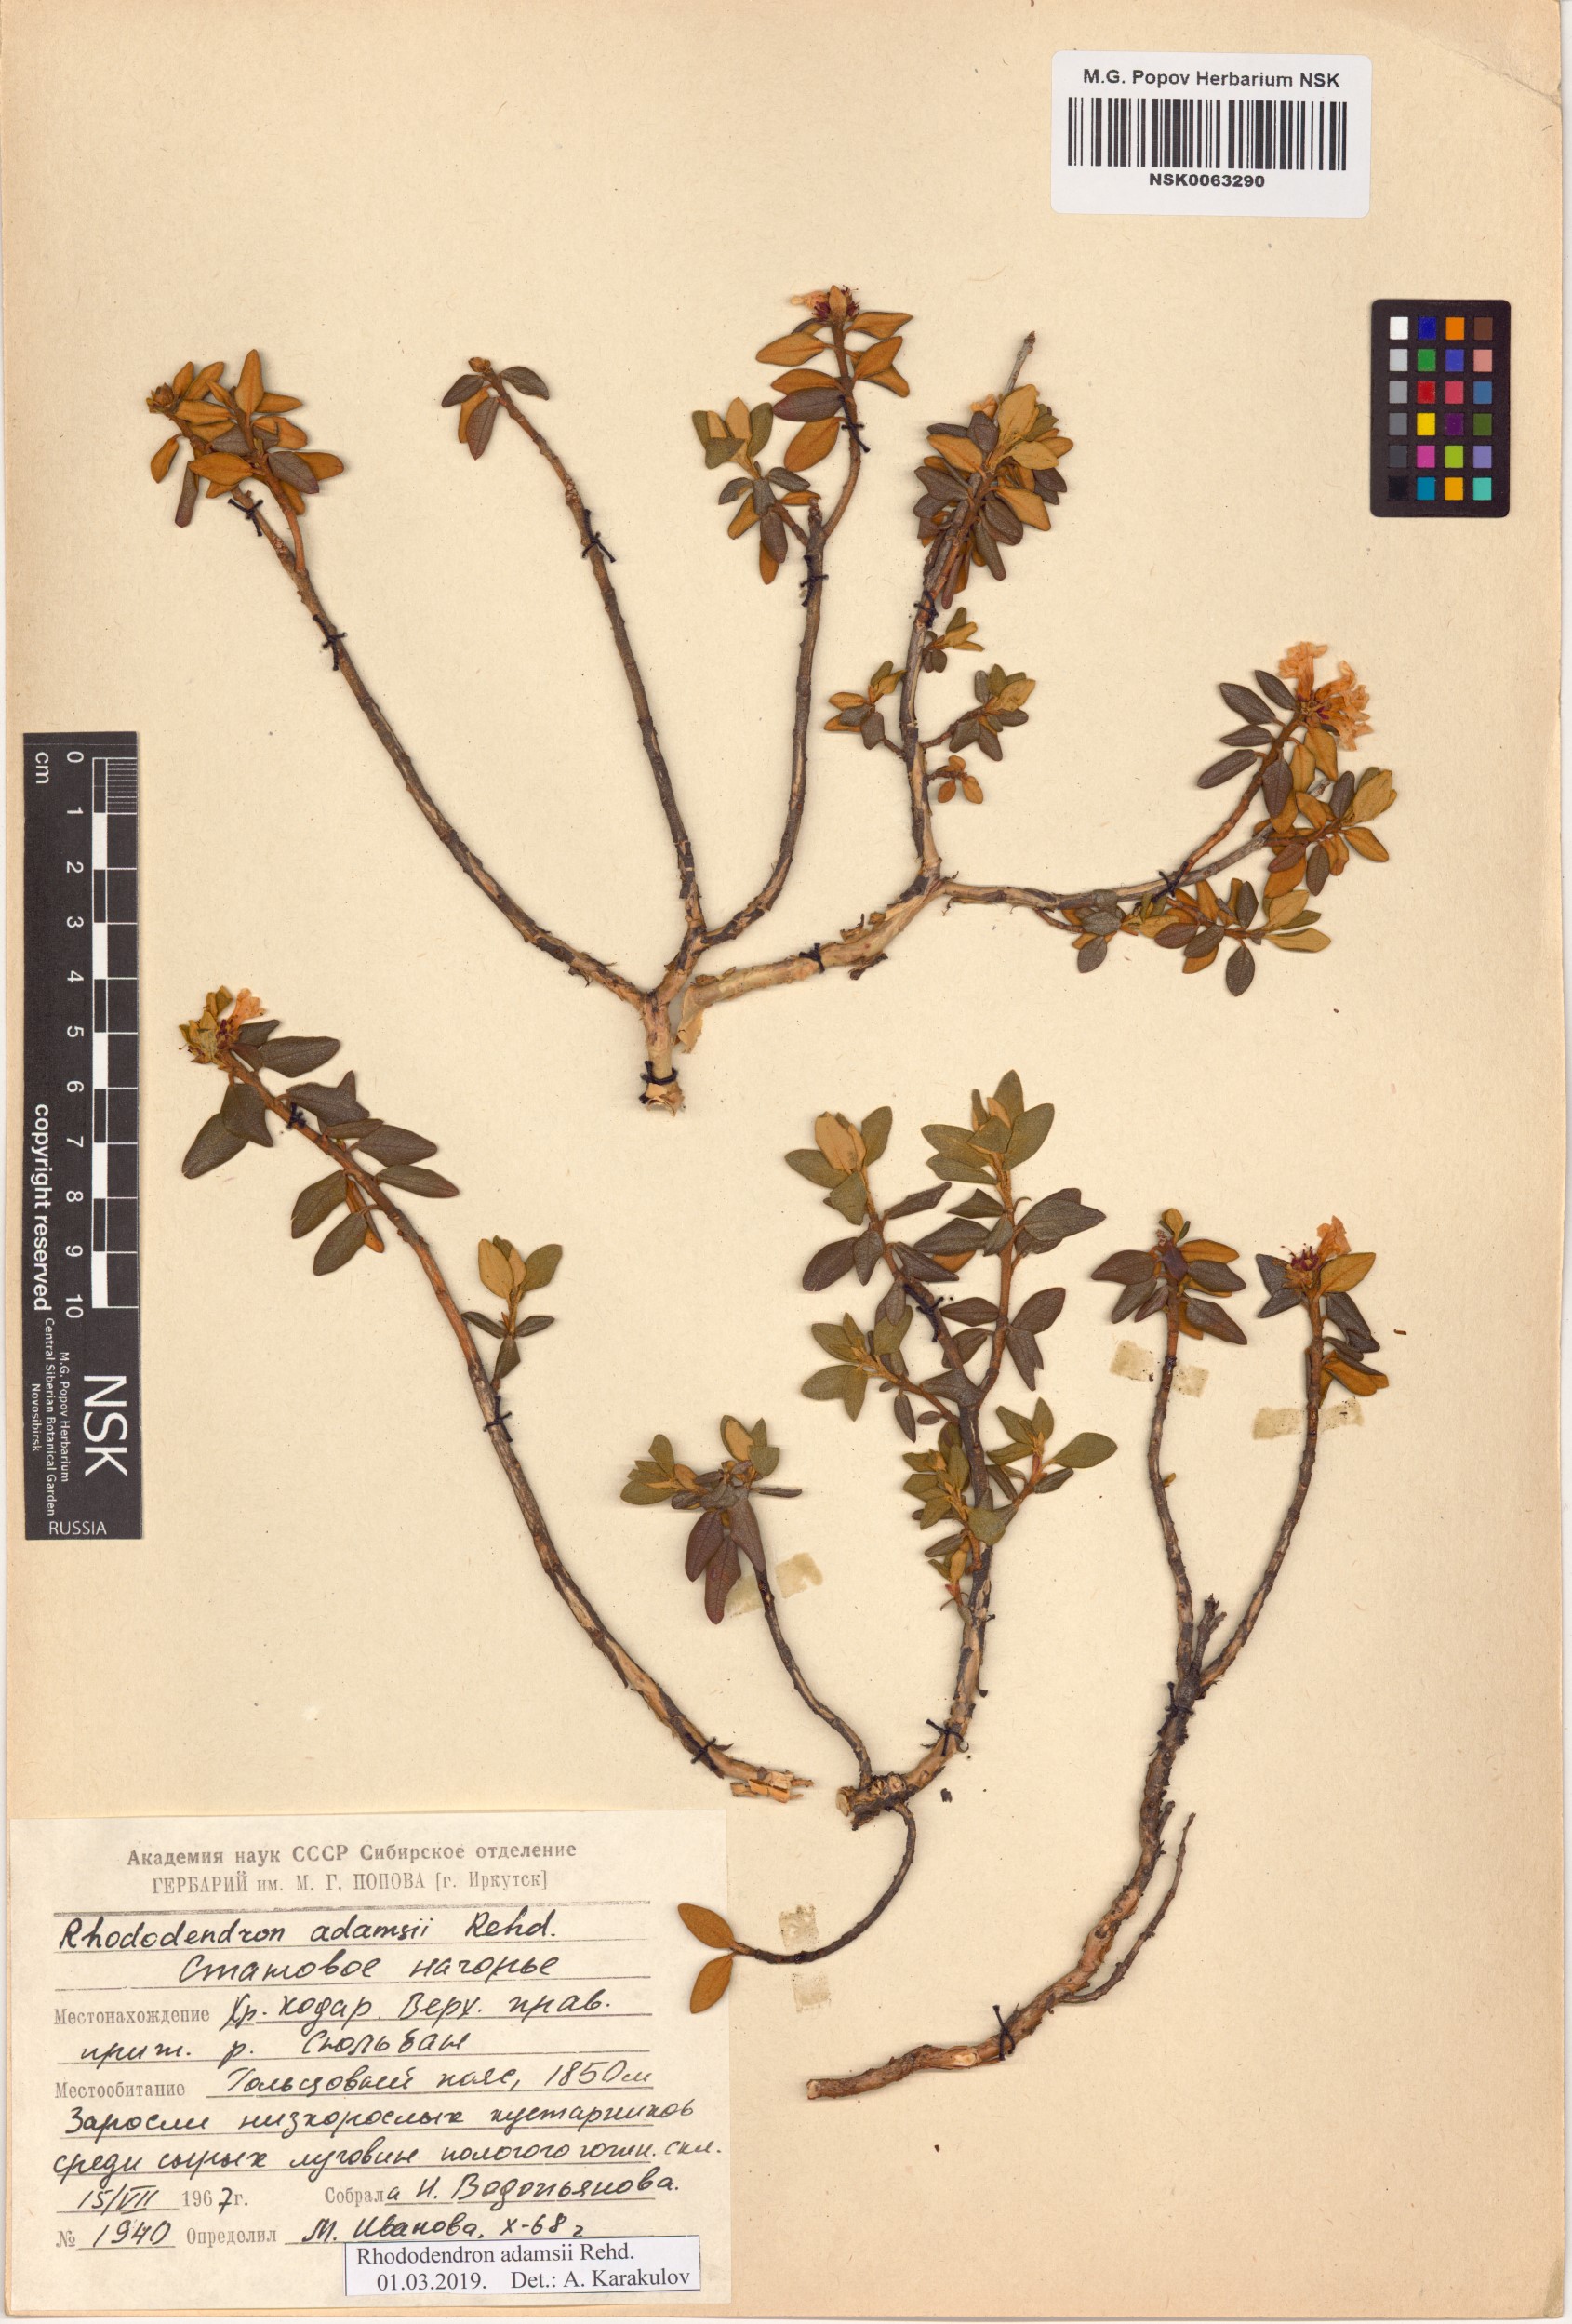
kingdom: Plantae
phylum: Tracheophyta
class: Magnoliopsida
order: Ericales
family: Ericaceae
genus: Rhododendron
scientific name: Rhododendron adamsii
